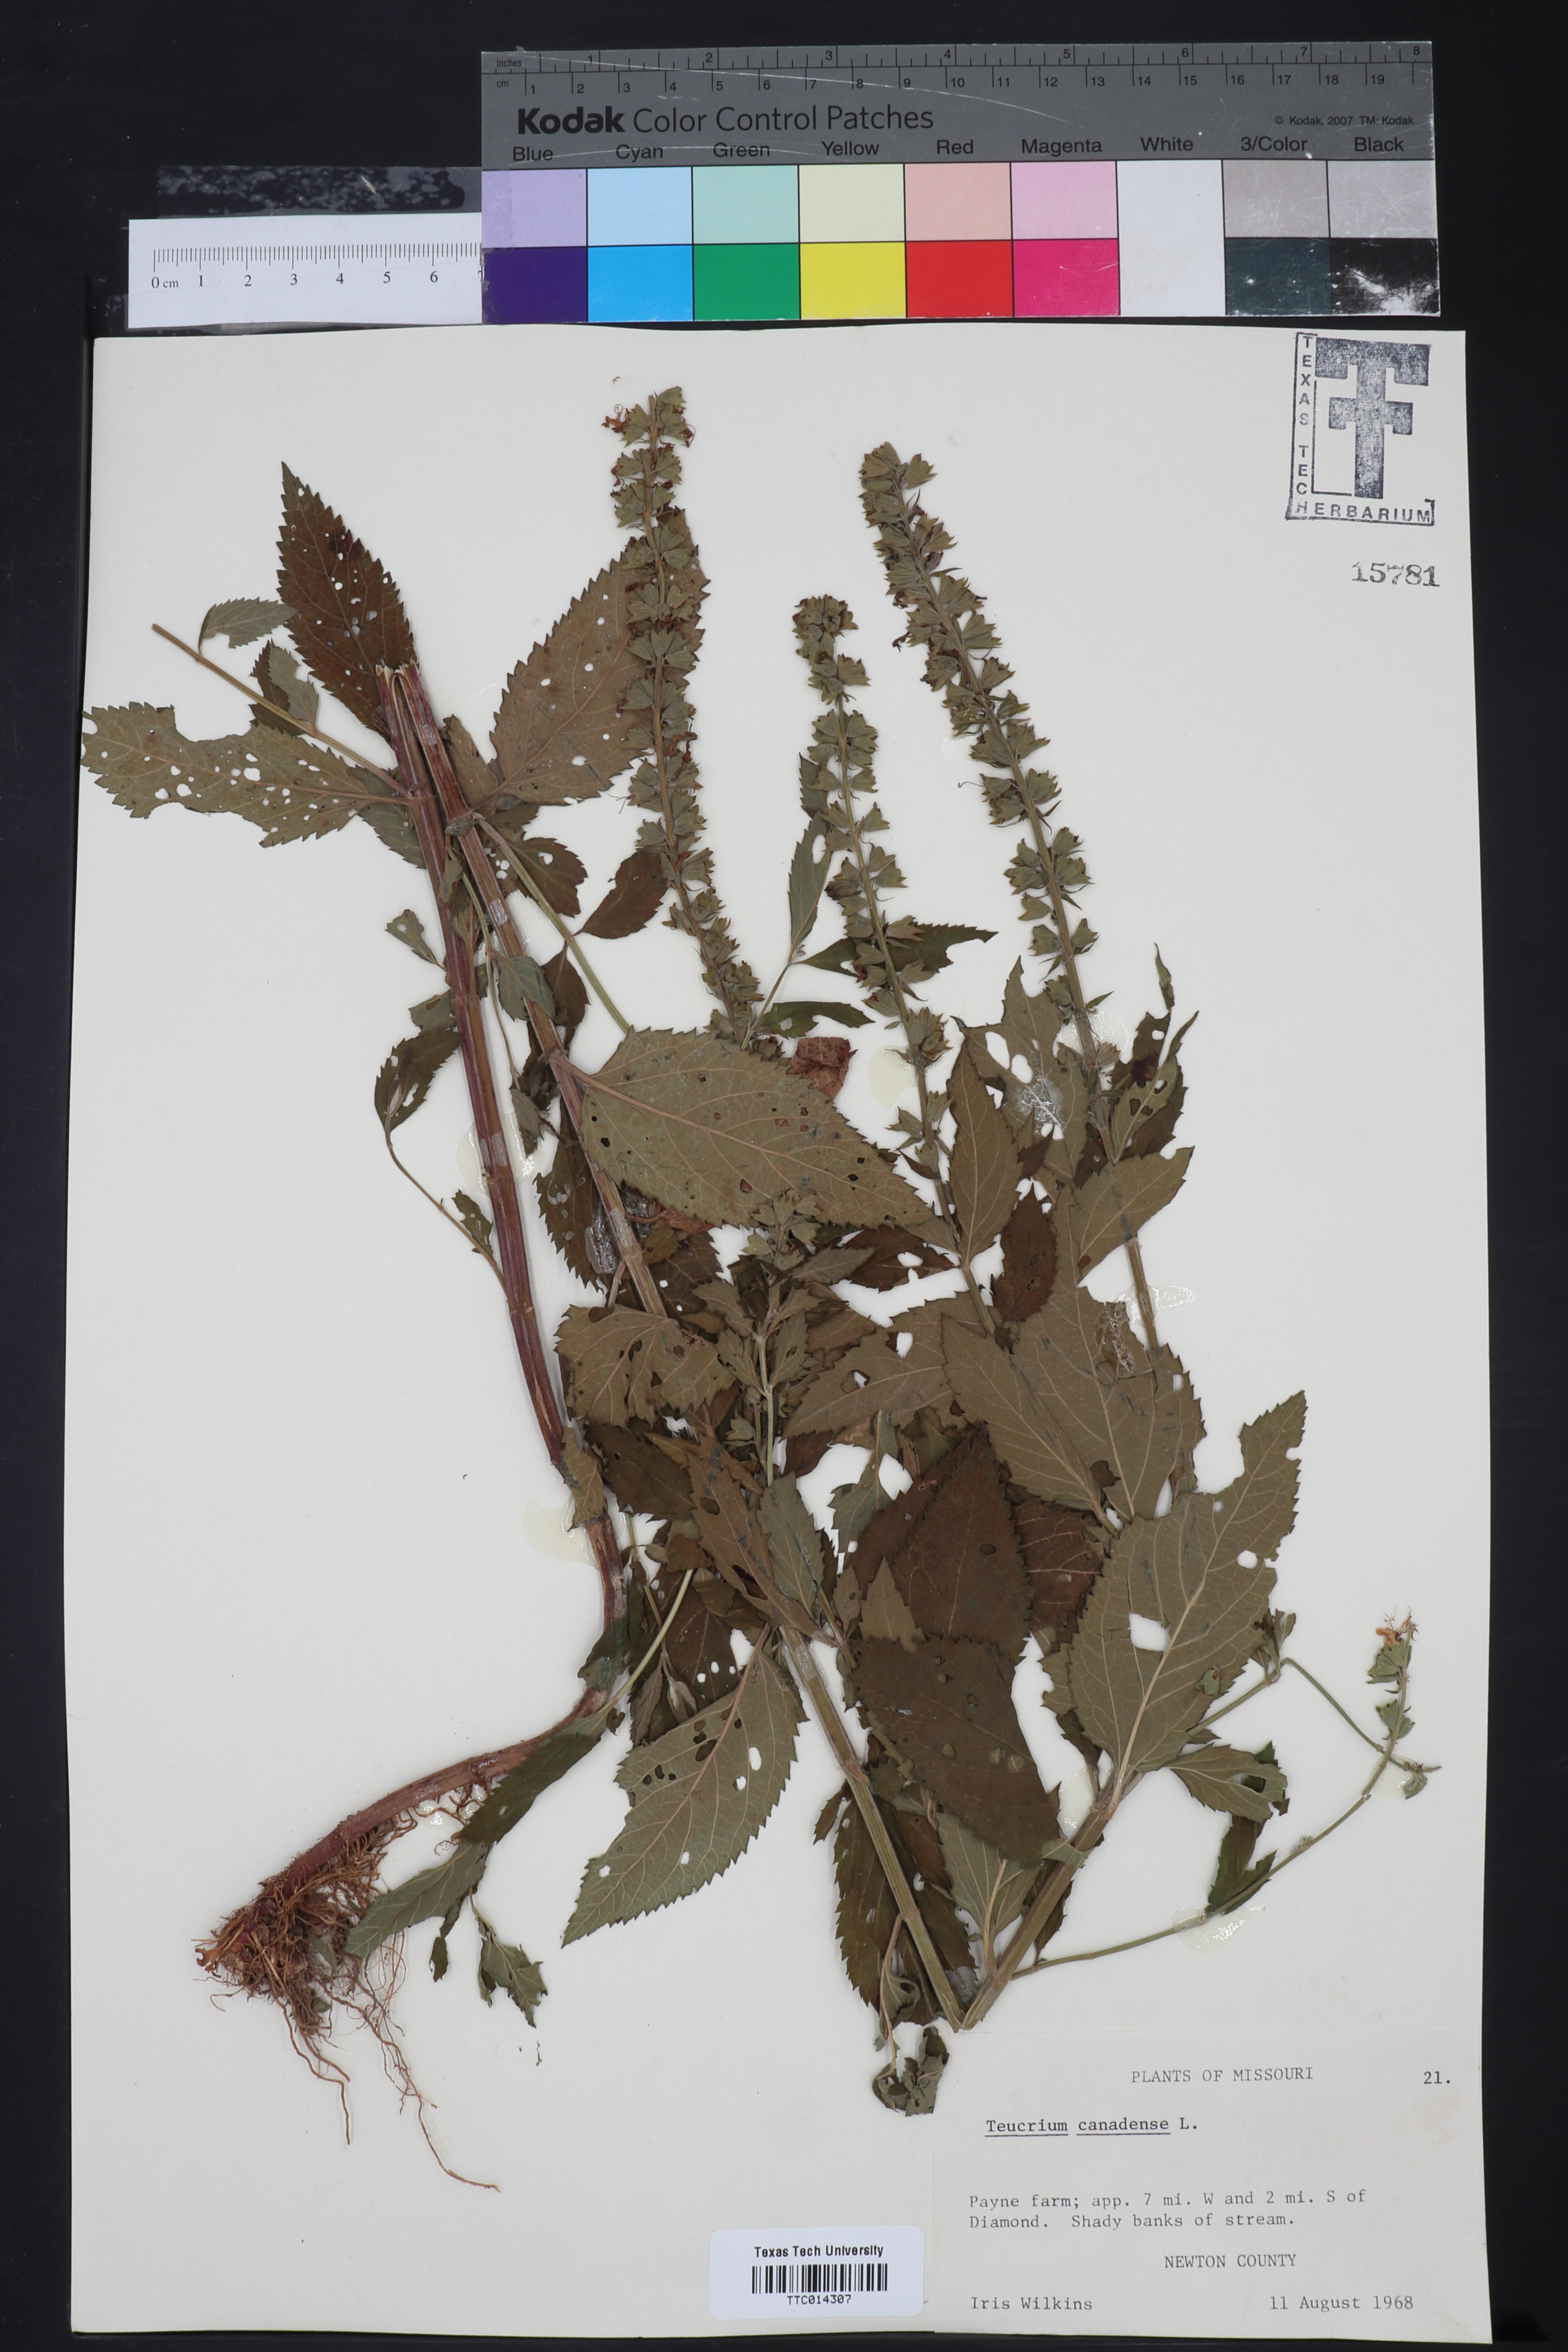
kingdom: Plantae
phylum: Tracheophyta
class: Magnoliopsida
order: Lamiales
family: Lamiaceae
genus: Teucrium
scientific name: Teucrium canadense
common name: American germander
